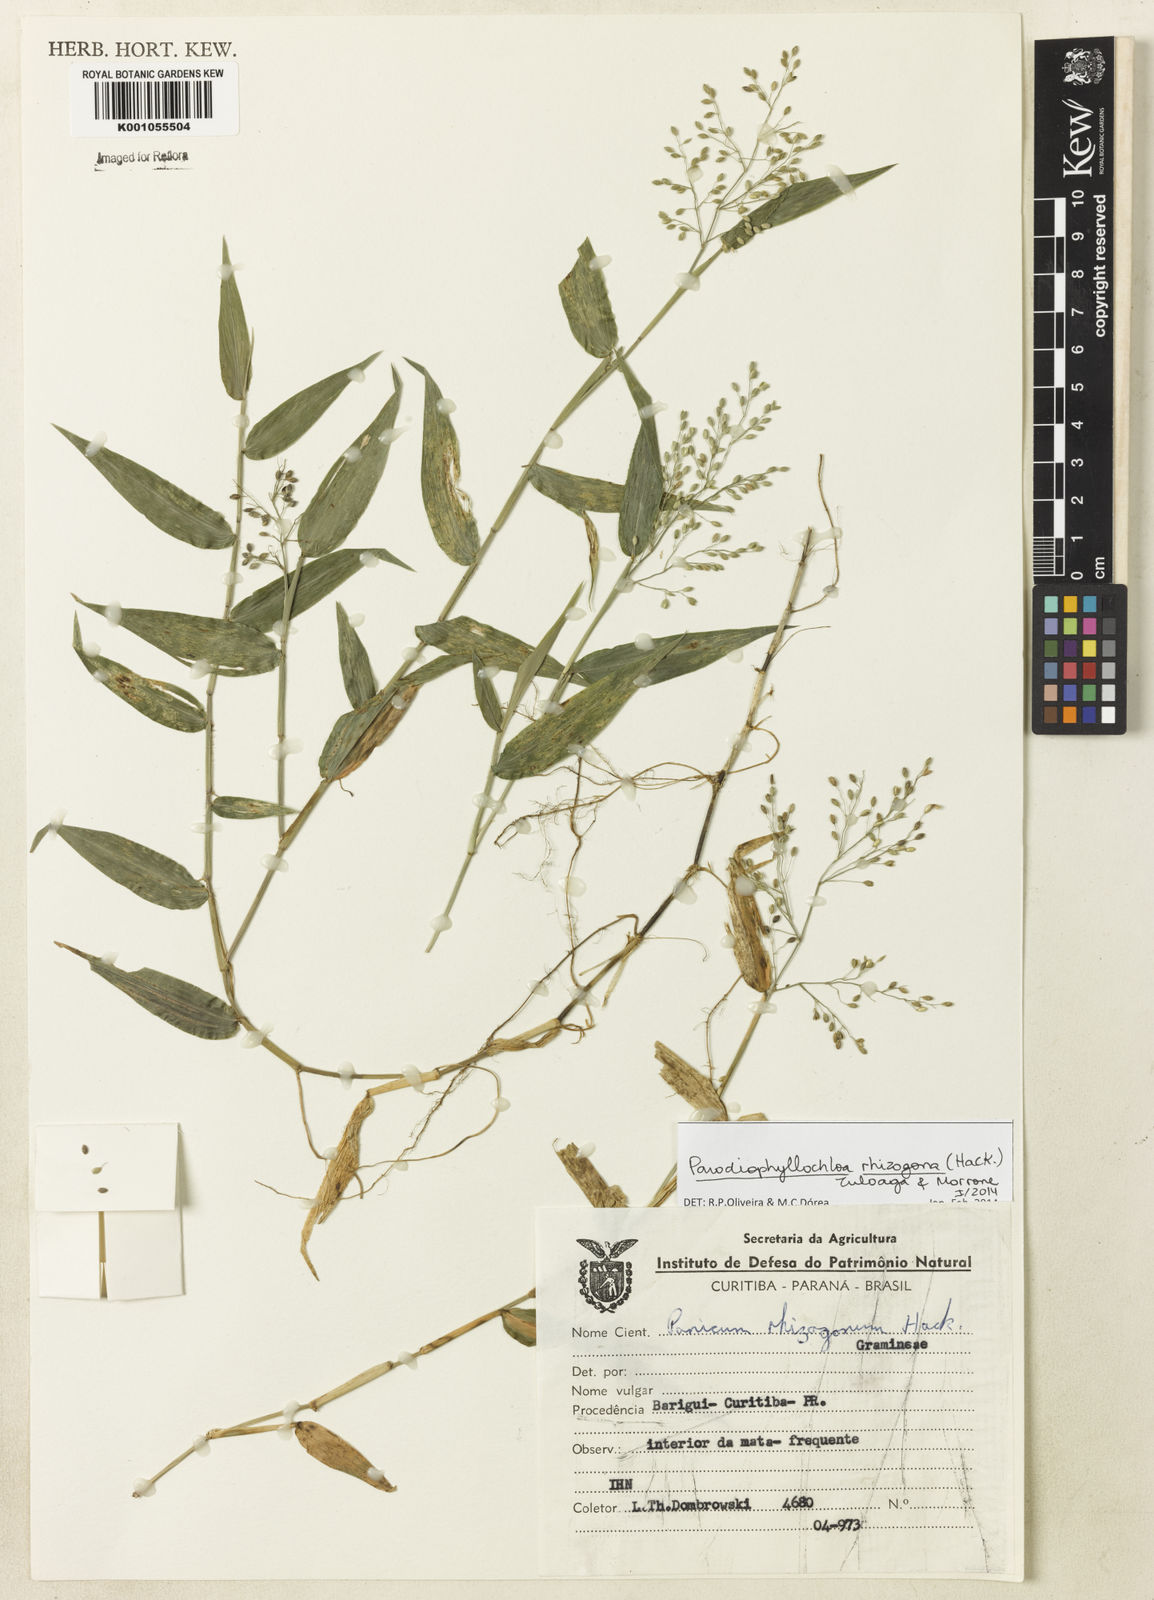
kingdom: Plantae
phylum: Tracheophyta
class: Liliopsida
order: Poales
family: Poaceae
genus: Parodiophyllochloa
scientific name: Parodiophyllochloa rhizogona
